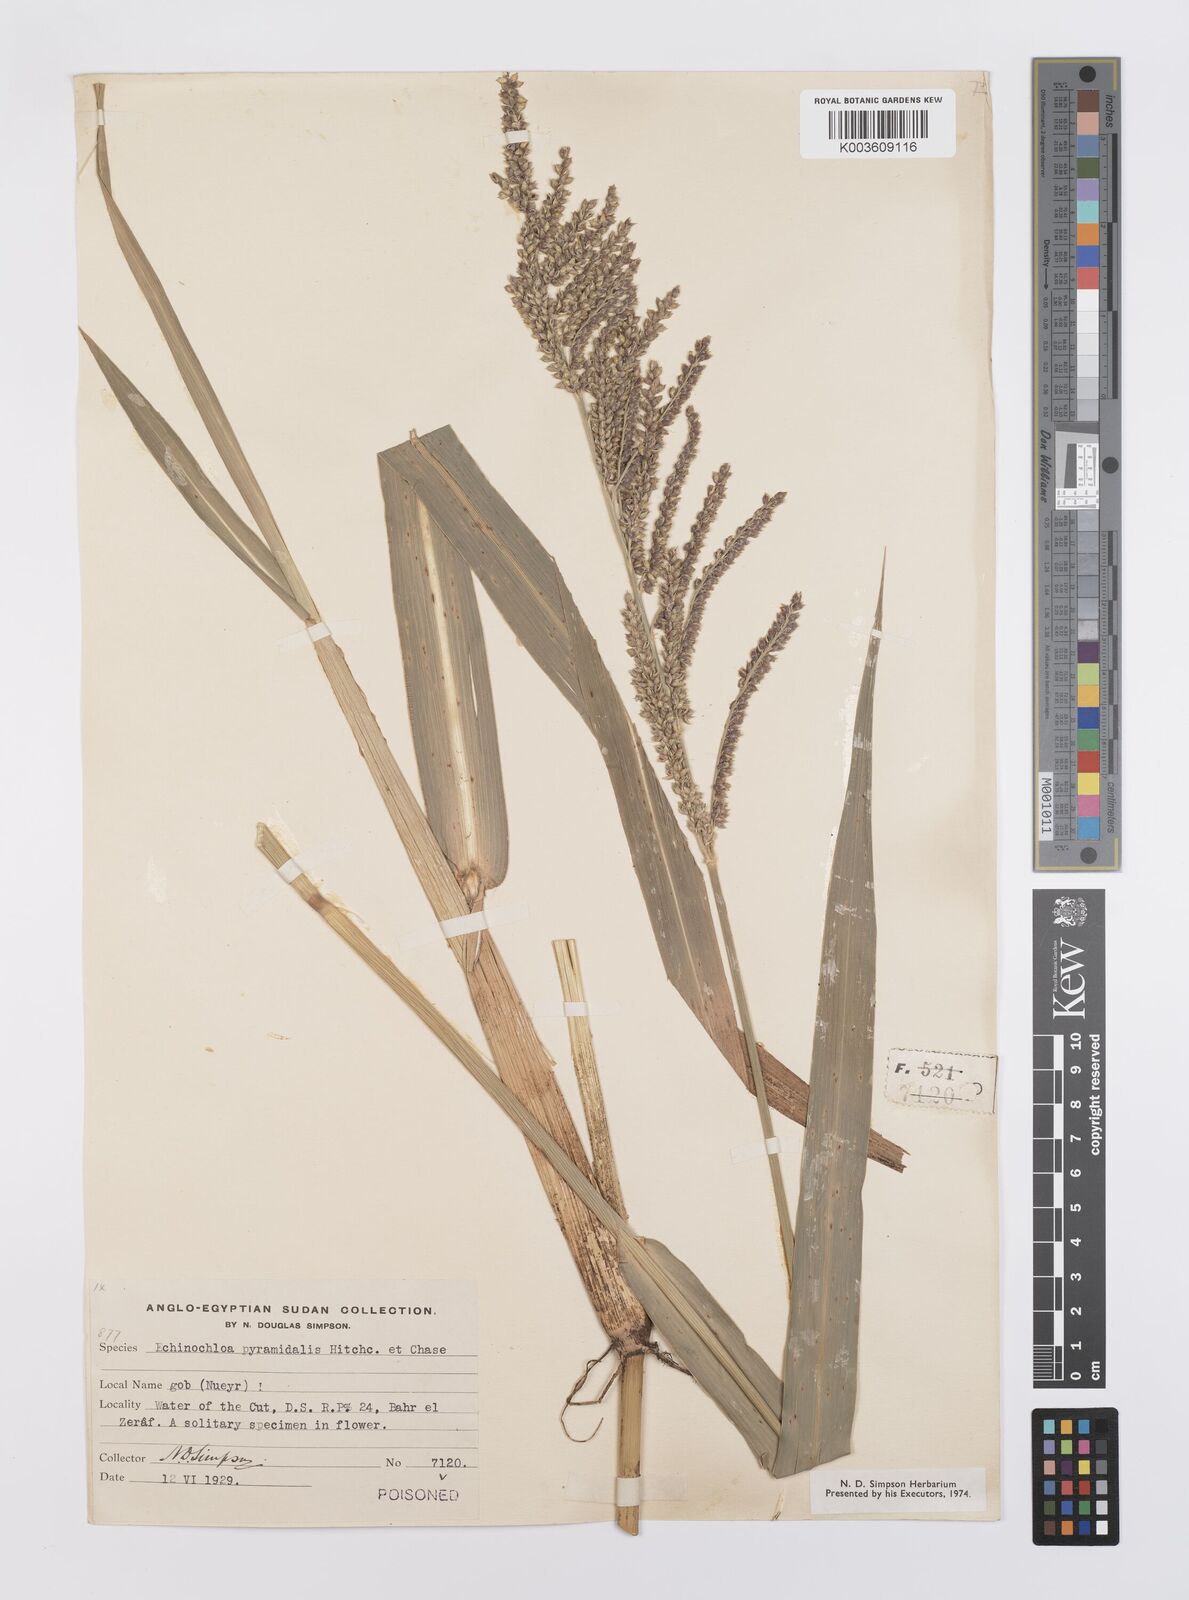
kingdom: Plantae
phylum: Tracheophyta
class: Liliopsida
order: Poales
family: Poaceae
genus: Echinochloa
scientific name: Echinochloa pyramidalis
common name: Antelope grass
